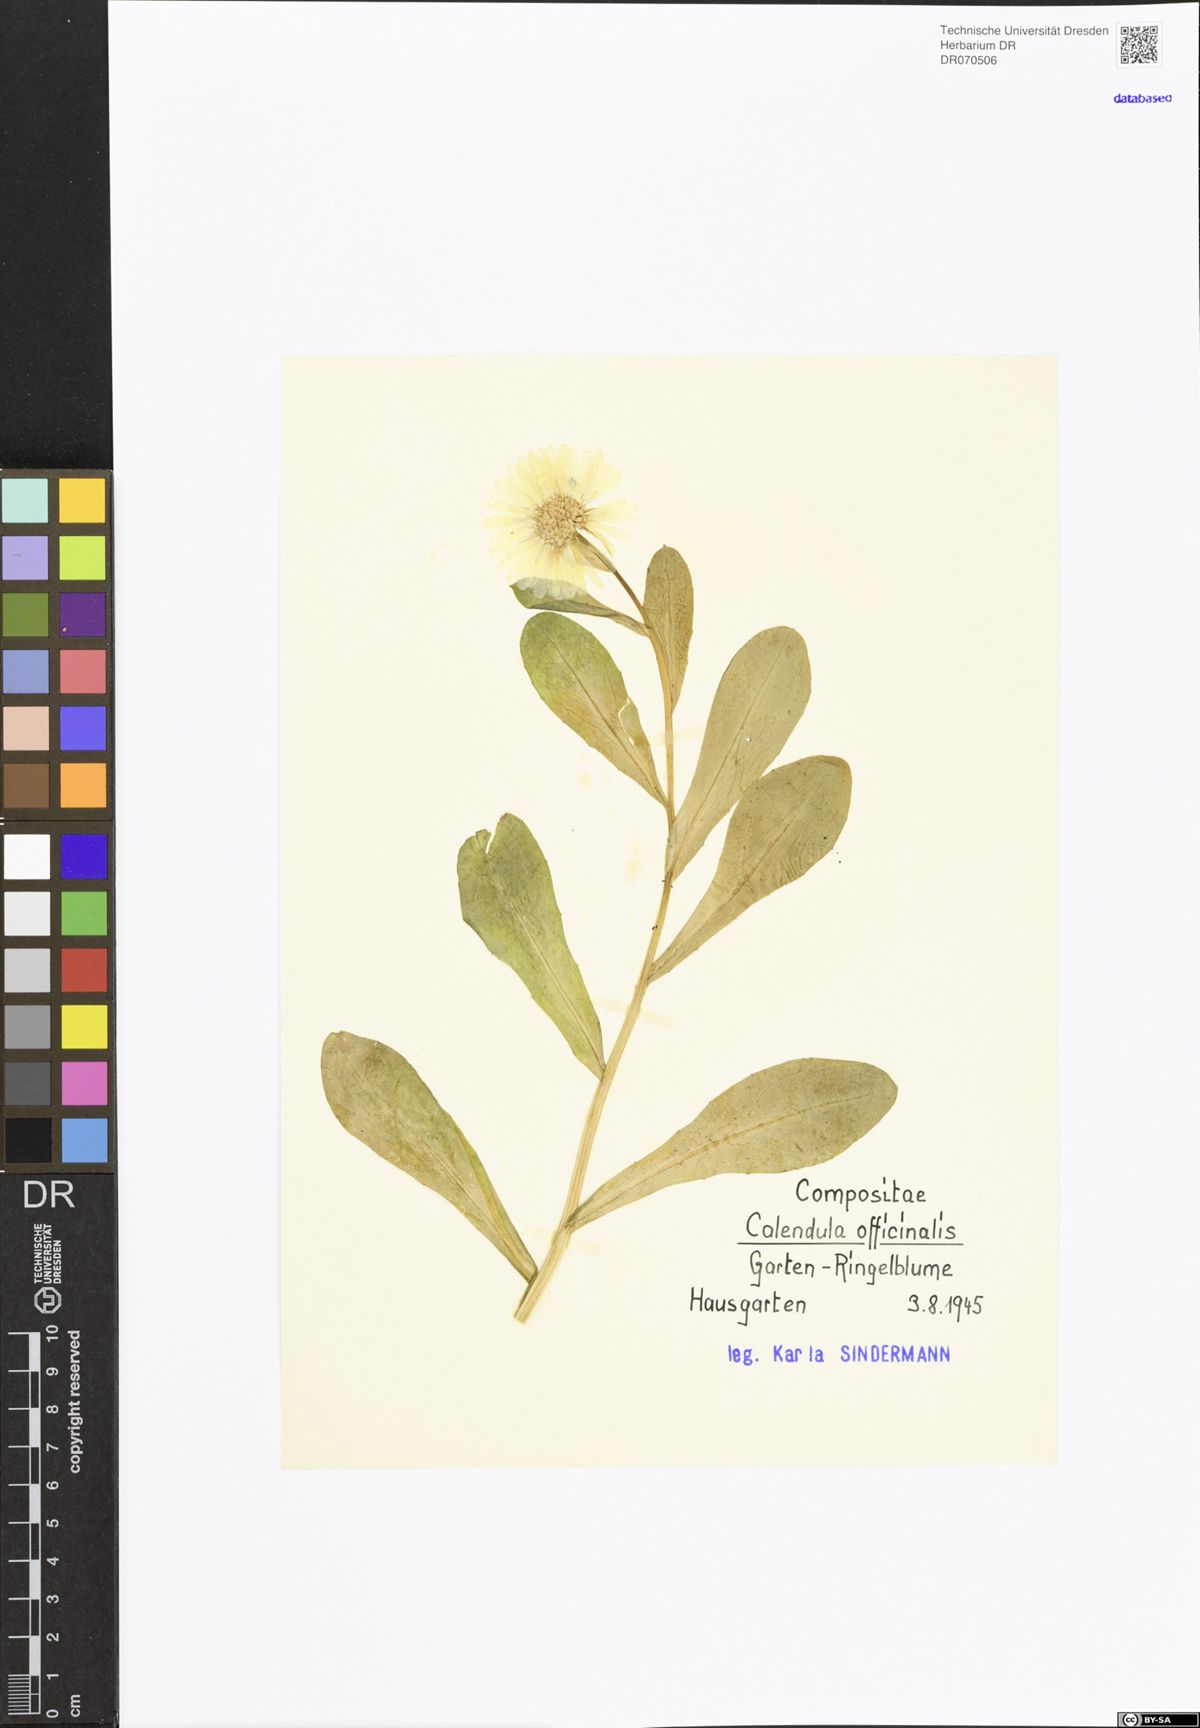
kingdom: Plantae
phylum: Tracheophyta
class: Magnoliopsida
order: Asterales
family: Asteraceae
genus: Calendula
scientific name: Calendula officinalis
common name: Pot marigold
